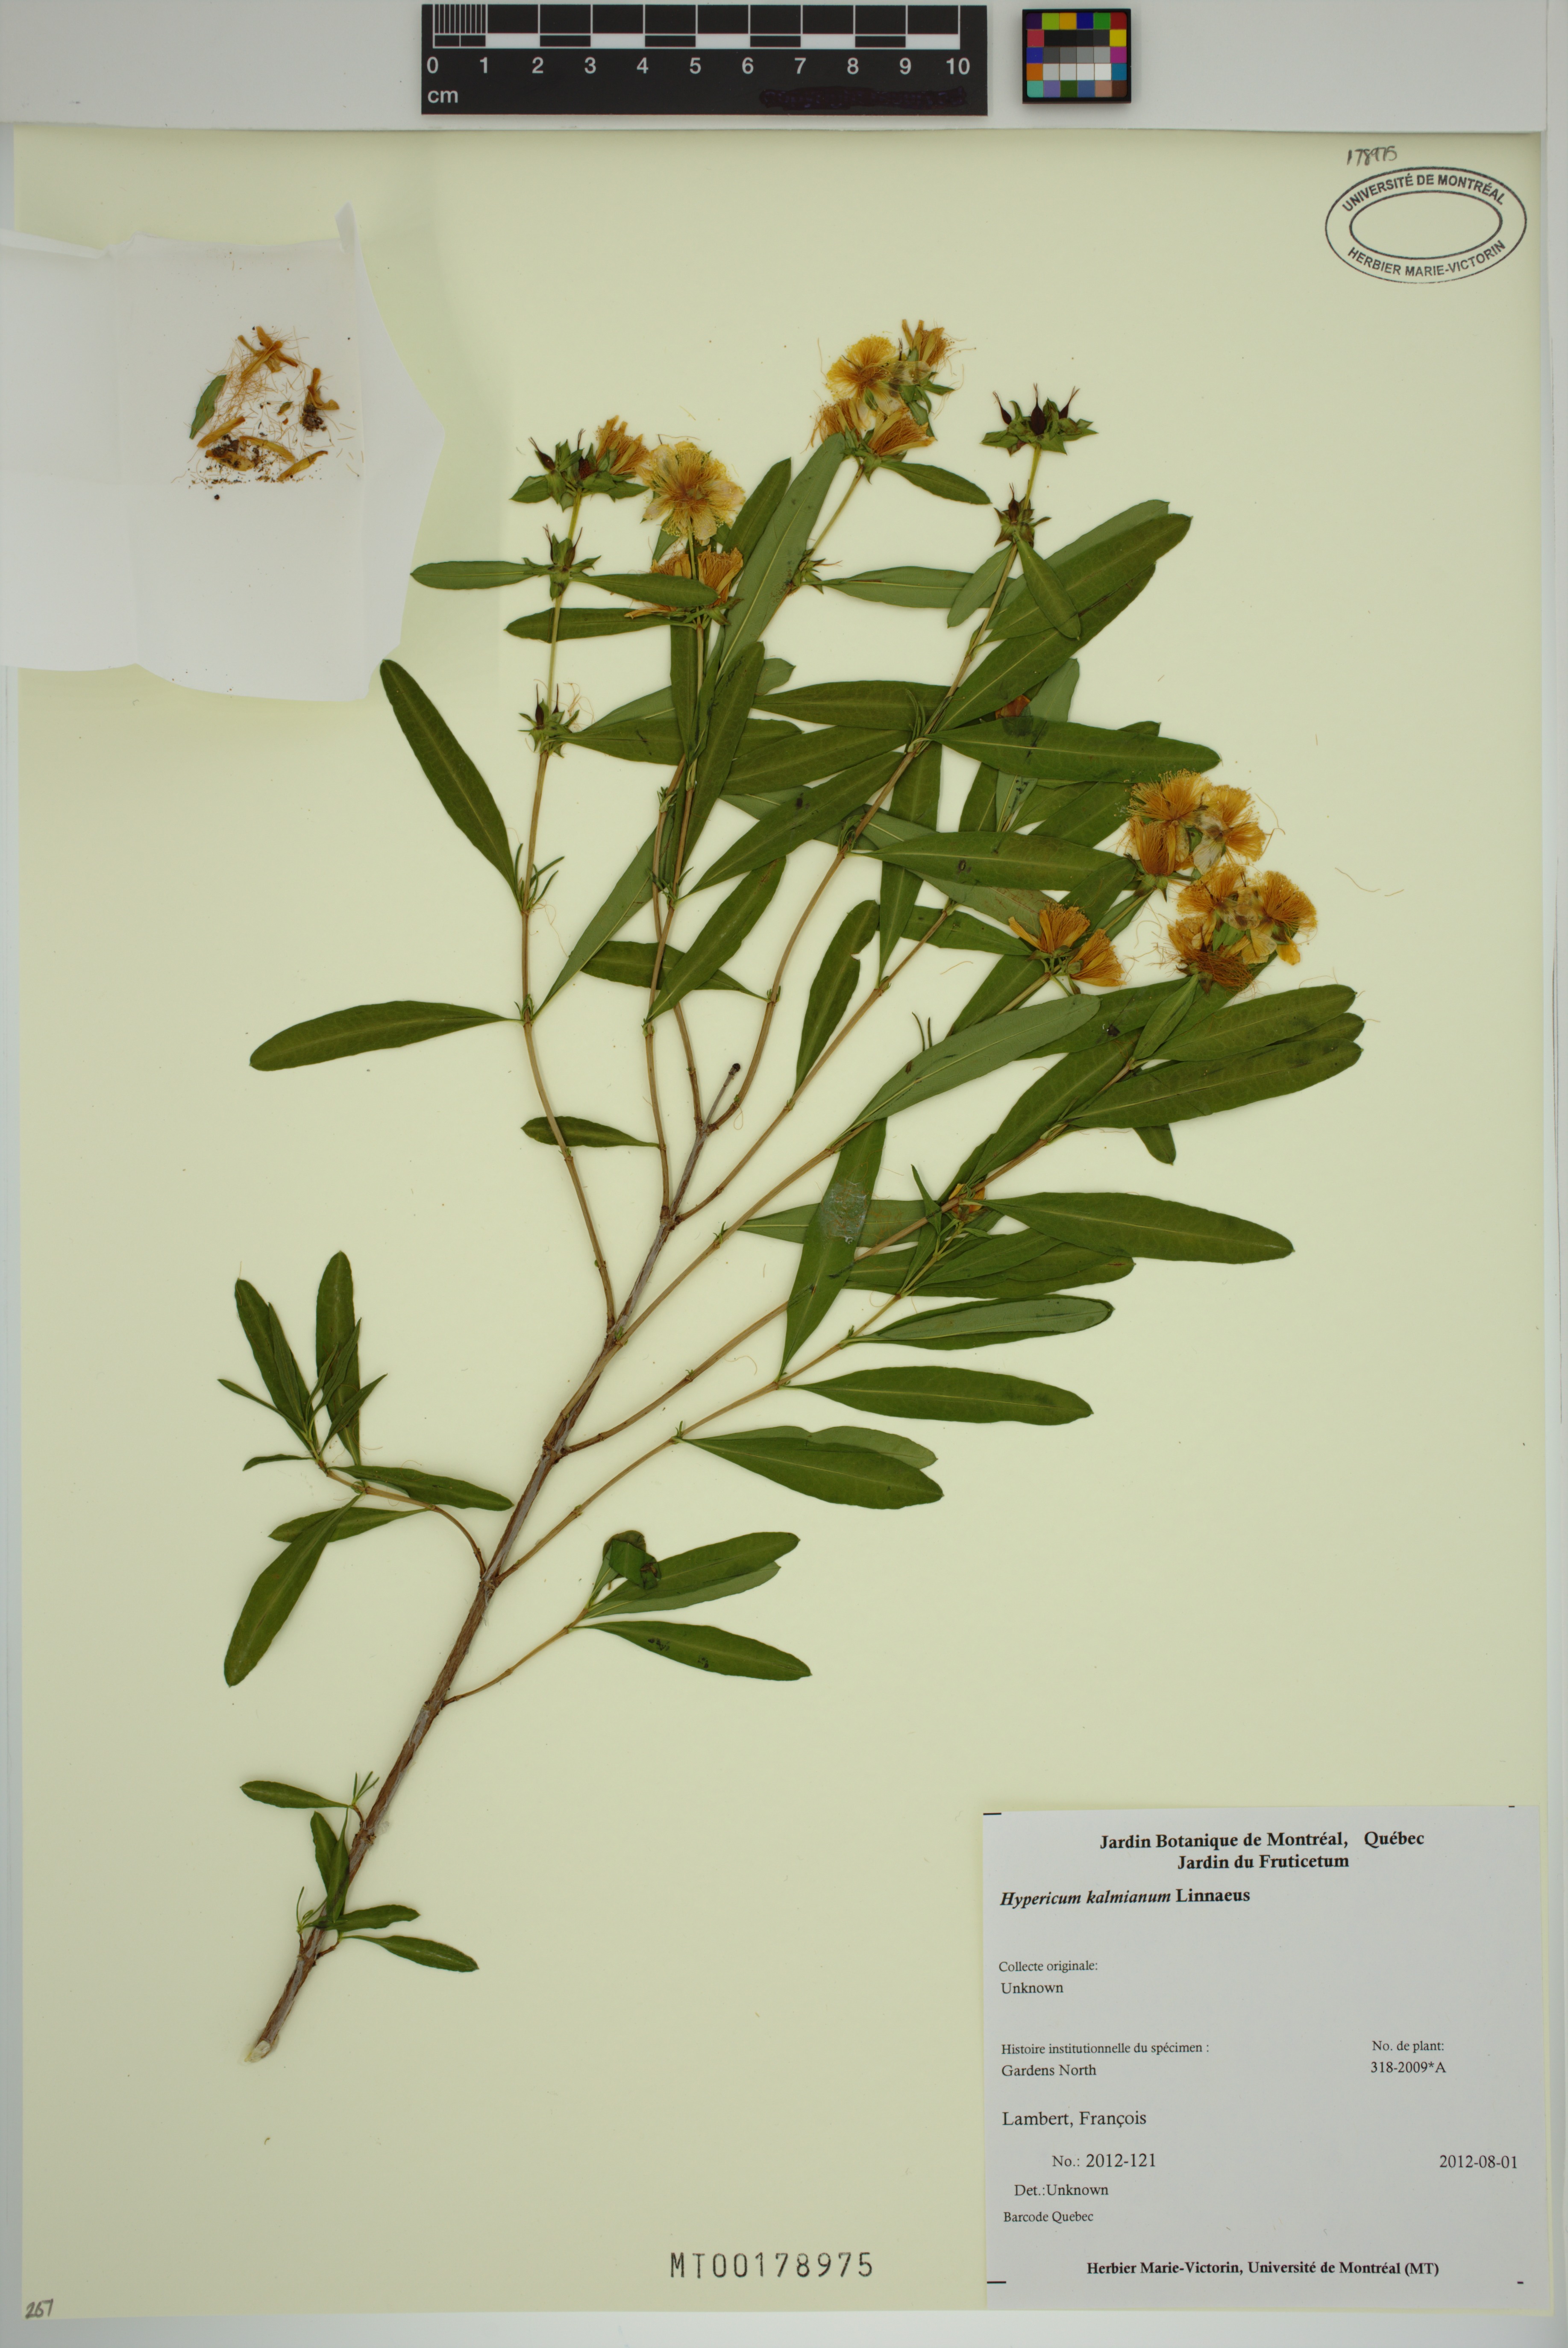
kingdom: Plantae
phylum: Tracheophyta
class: Magnoliopsida
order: Malpighiales
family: Hypericaceae
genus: Hypericum
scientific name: Hypericum kalmianum
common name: Kalm's st. john's-wort
